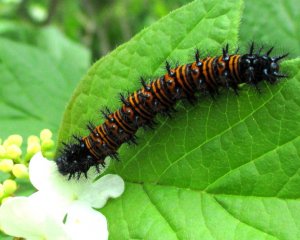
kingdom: Animalia
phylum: Arthropoda
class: Insecta
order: Lepidoptera
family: Nymphalidae
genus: Euphydryas
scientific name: Euphydryas phaeton
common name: Baltimore Checkerspot
